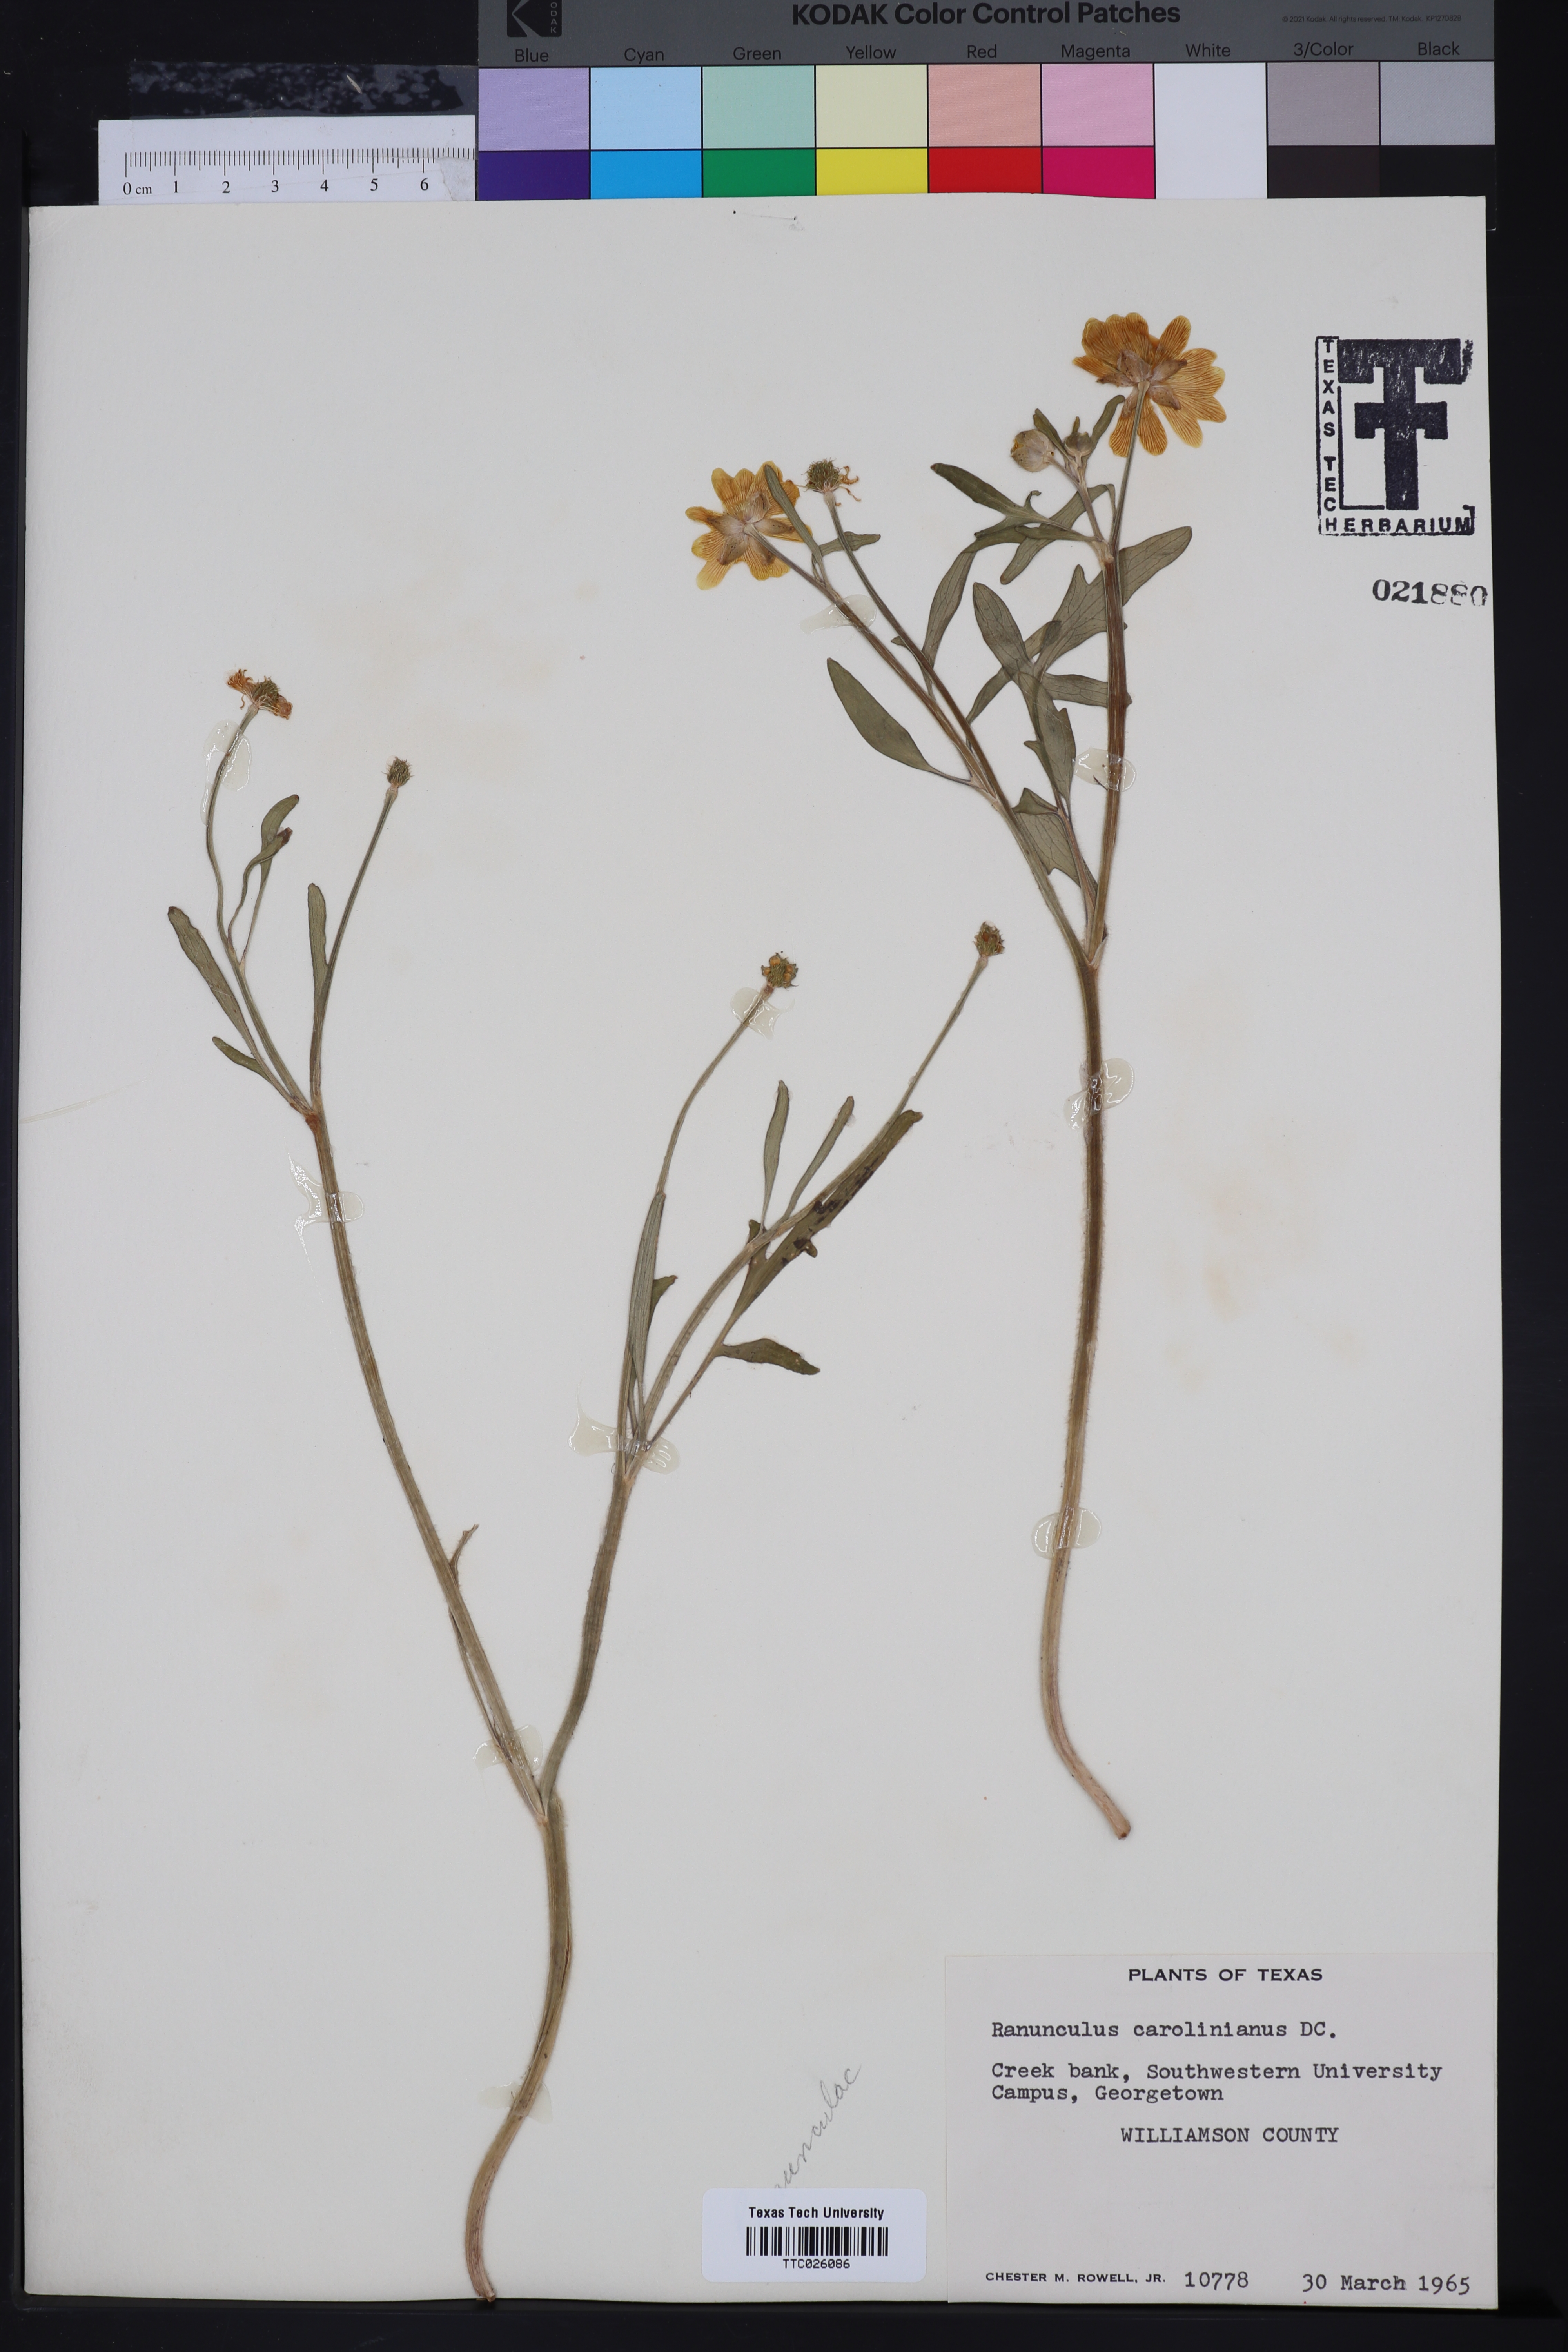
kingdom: Plantae
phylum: Tracheophyta
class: Magnoliopsida
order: Ranunculales
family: Ranunculaceae
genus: Ranunculus
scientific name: Ranunculus hispidus
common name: Bristly buttercup
